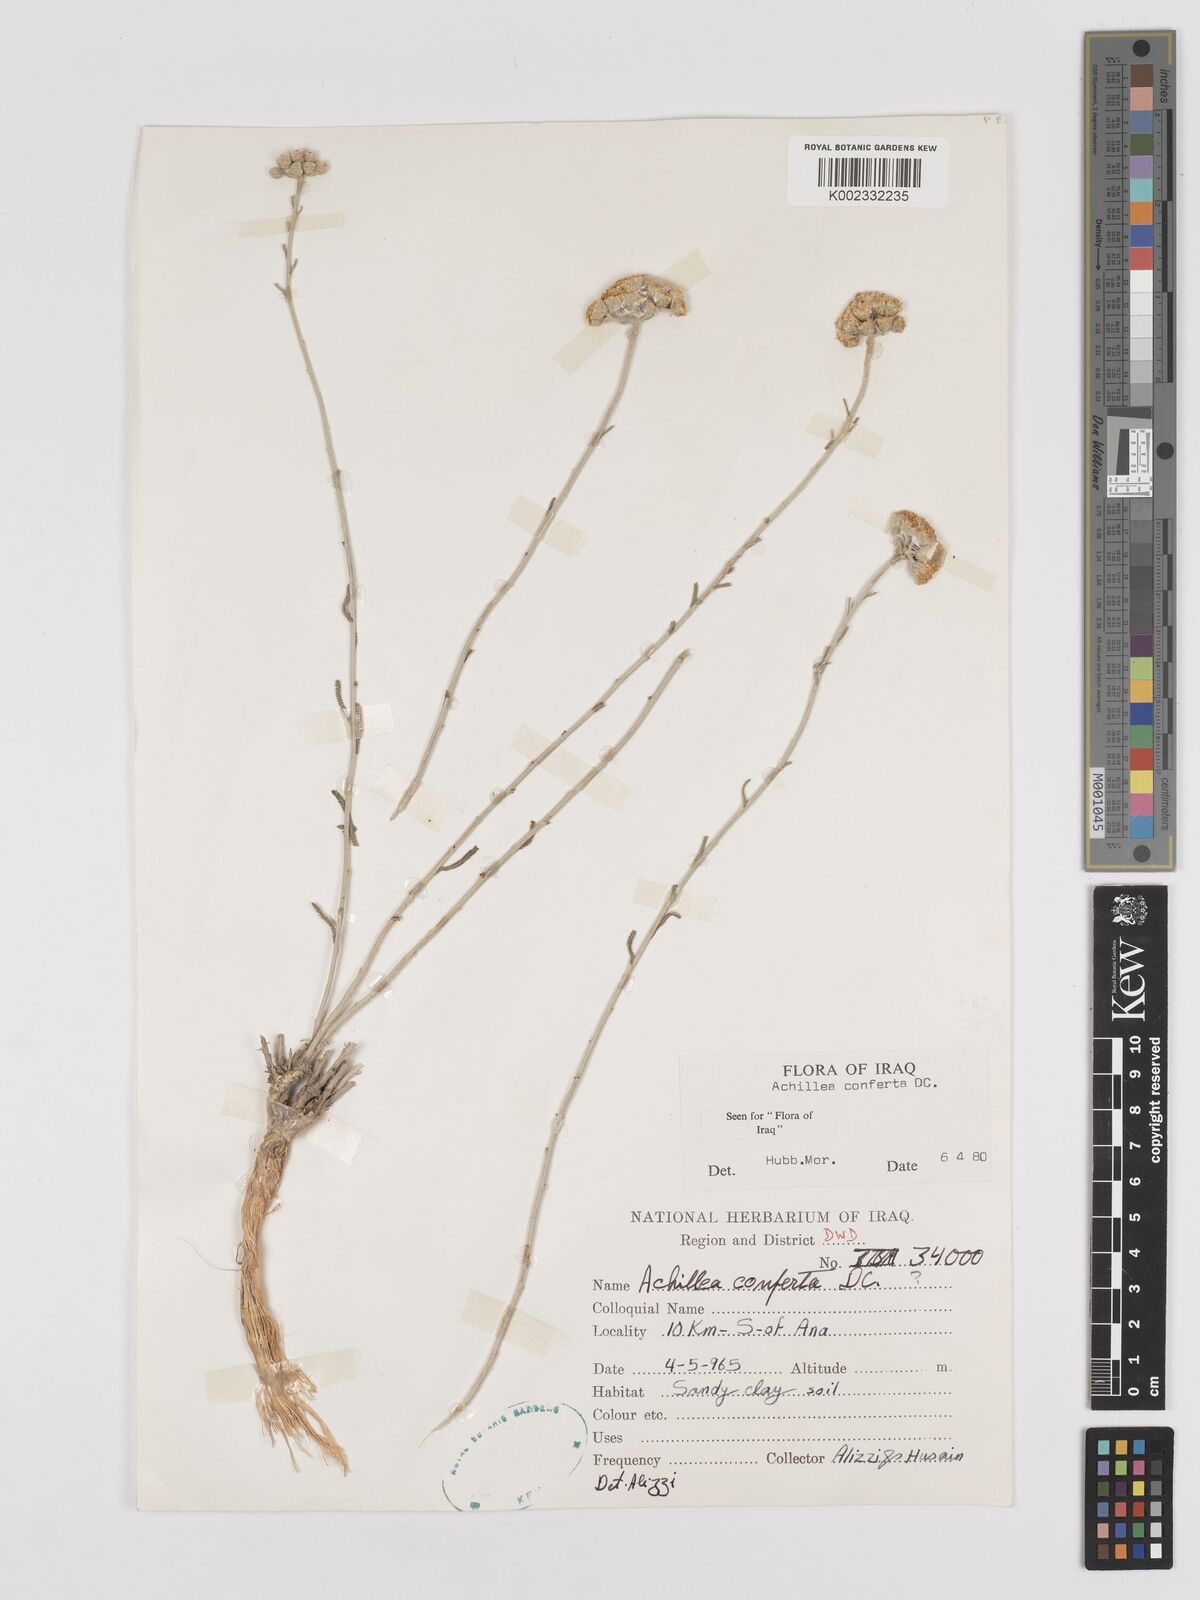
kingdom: Plantae
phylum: Tracheophyta
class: Magnoliopsida
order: Asterales
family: Asteraceae
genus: Achillea
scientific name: Achillea conferta
